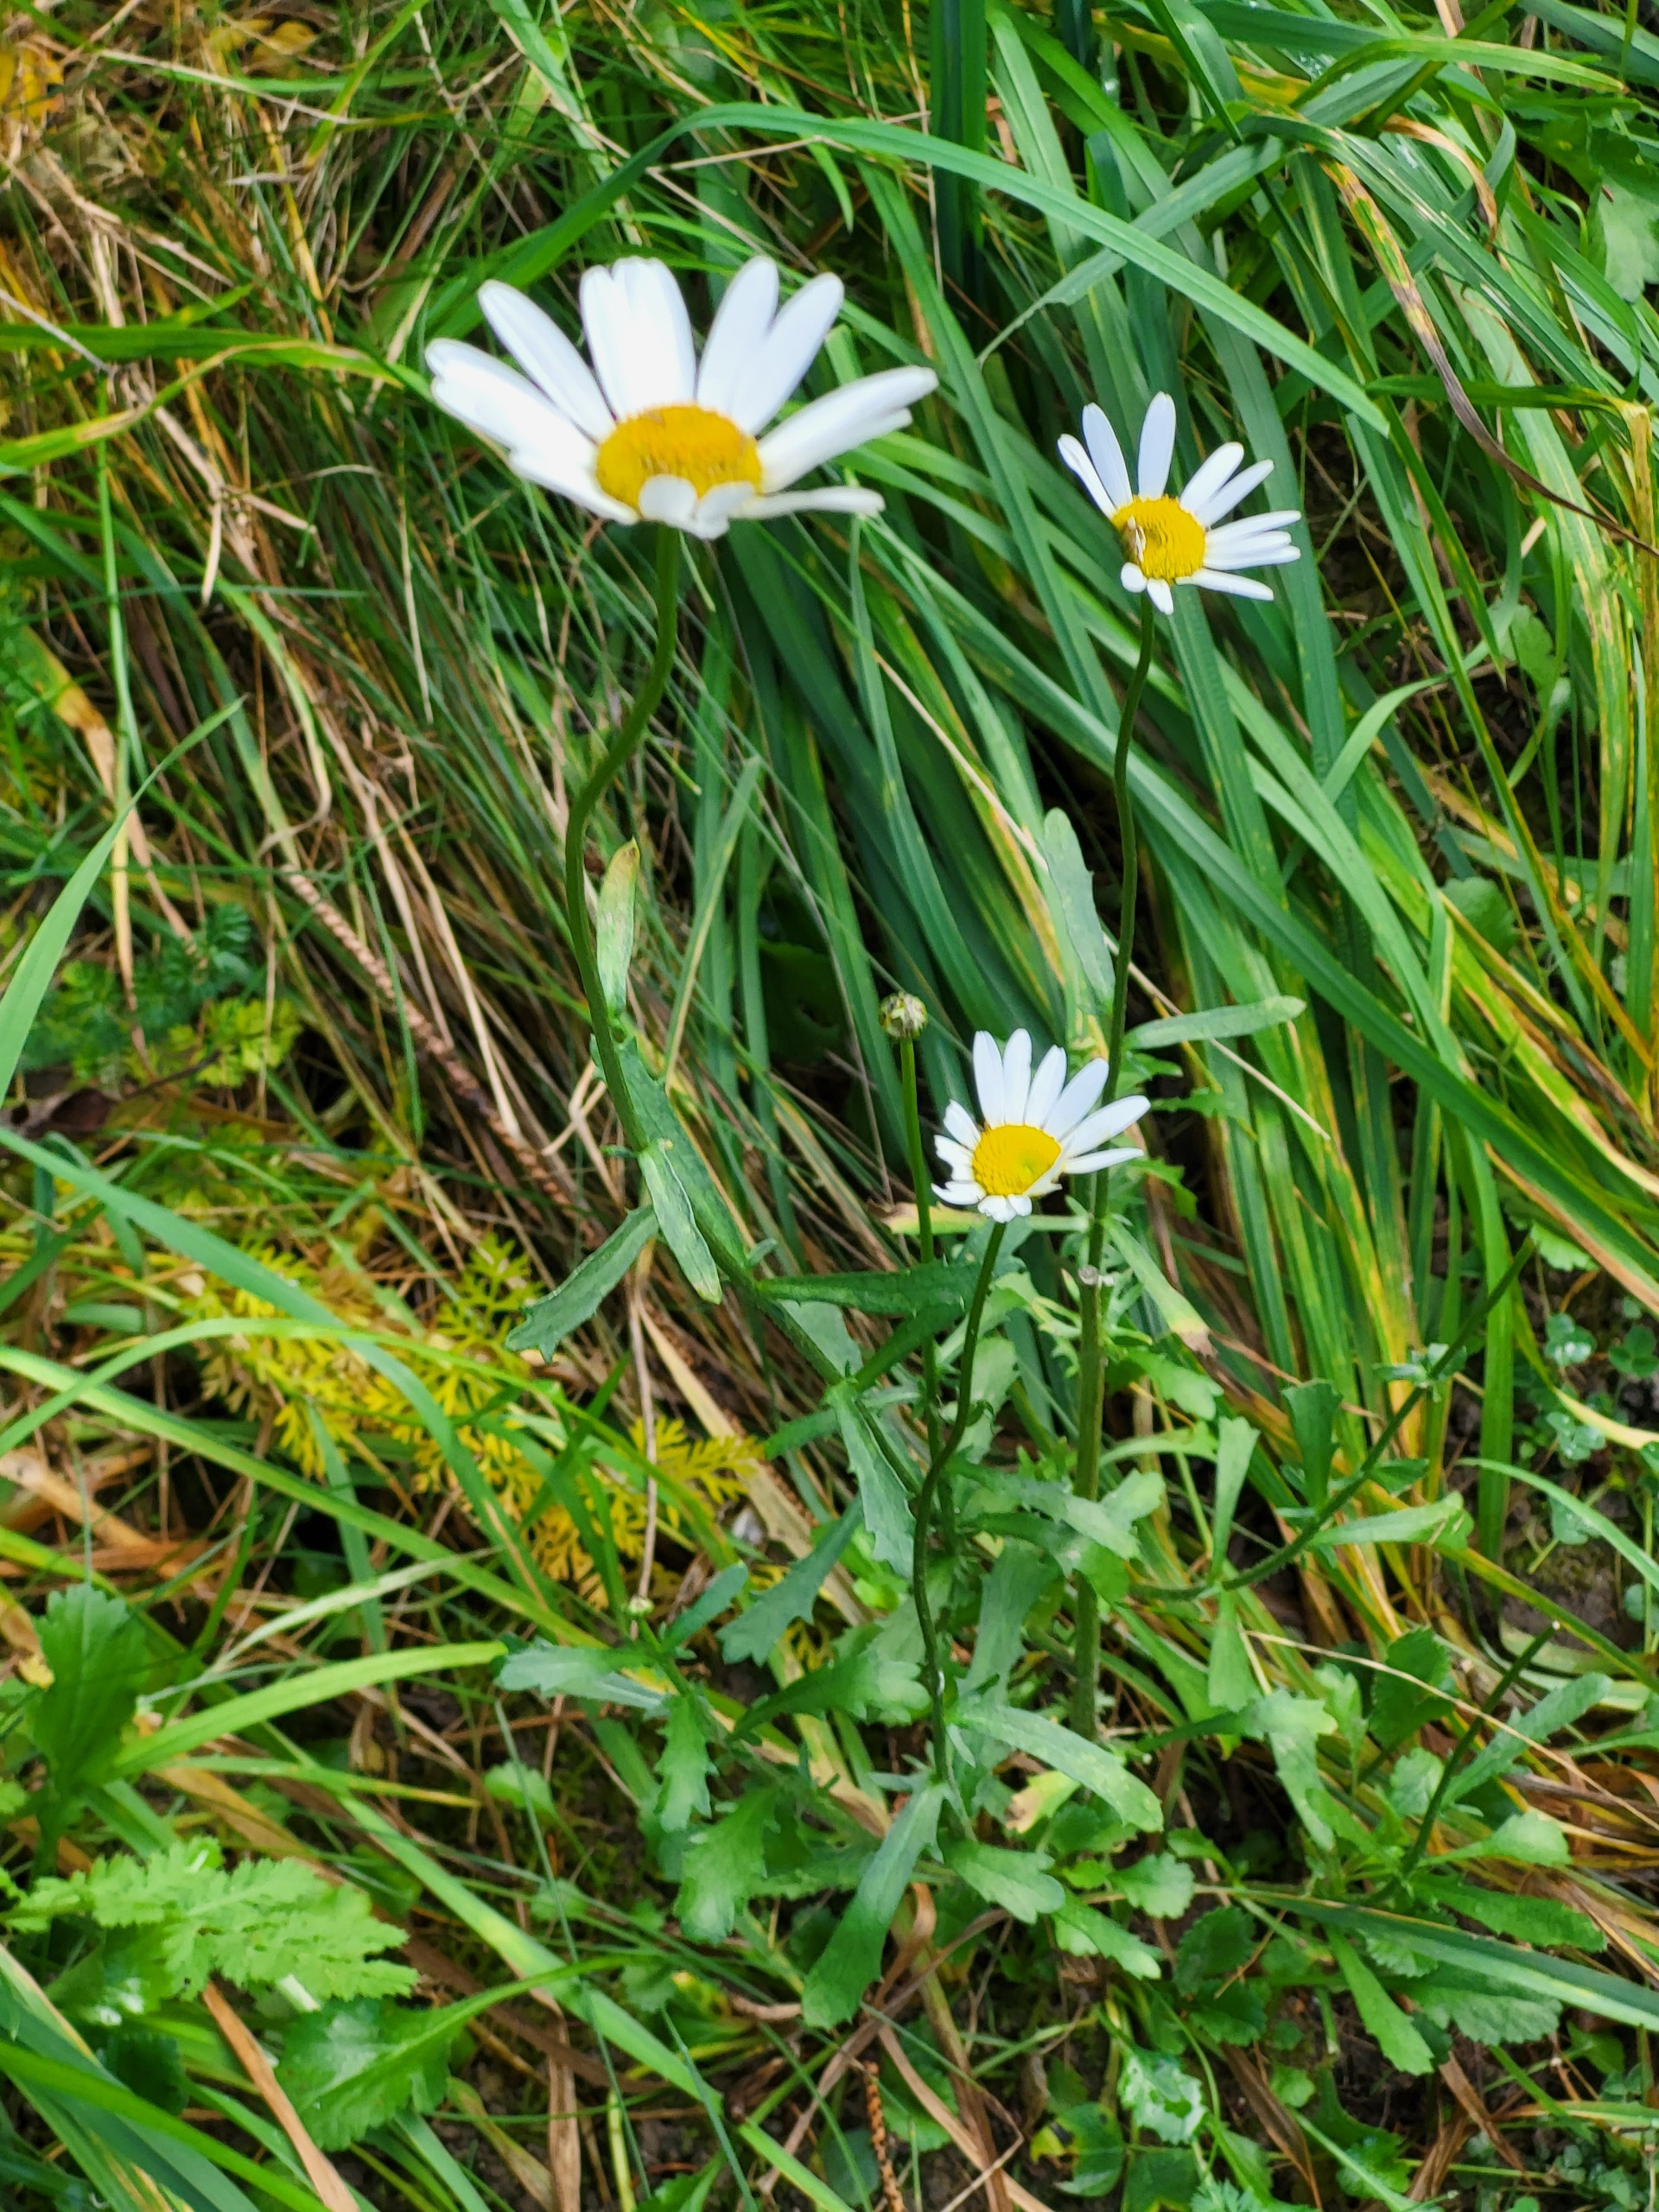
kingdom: Plantae
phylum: Tracheophyta
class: Magnoliopsida
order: Asterales
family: Asteraceae
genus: Leucanthemum
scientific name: Leucanthemum vulgare
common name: Hvid okseøje
